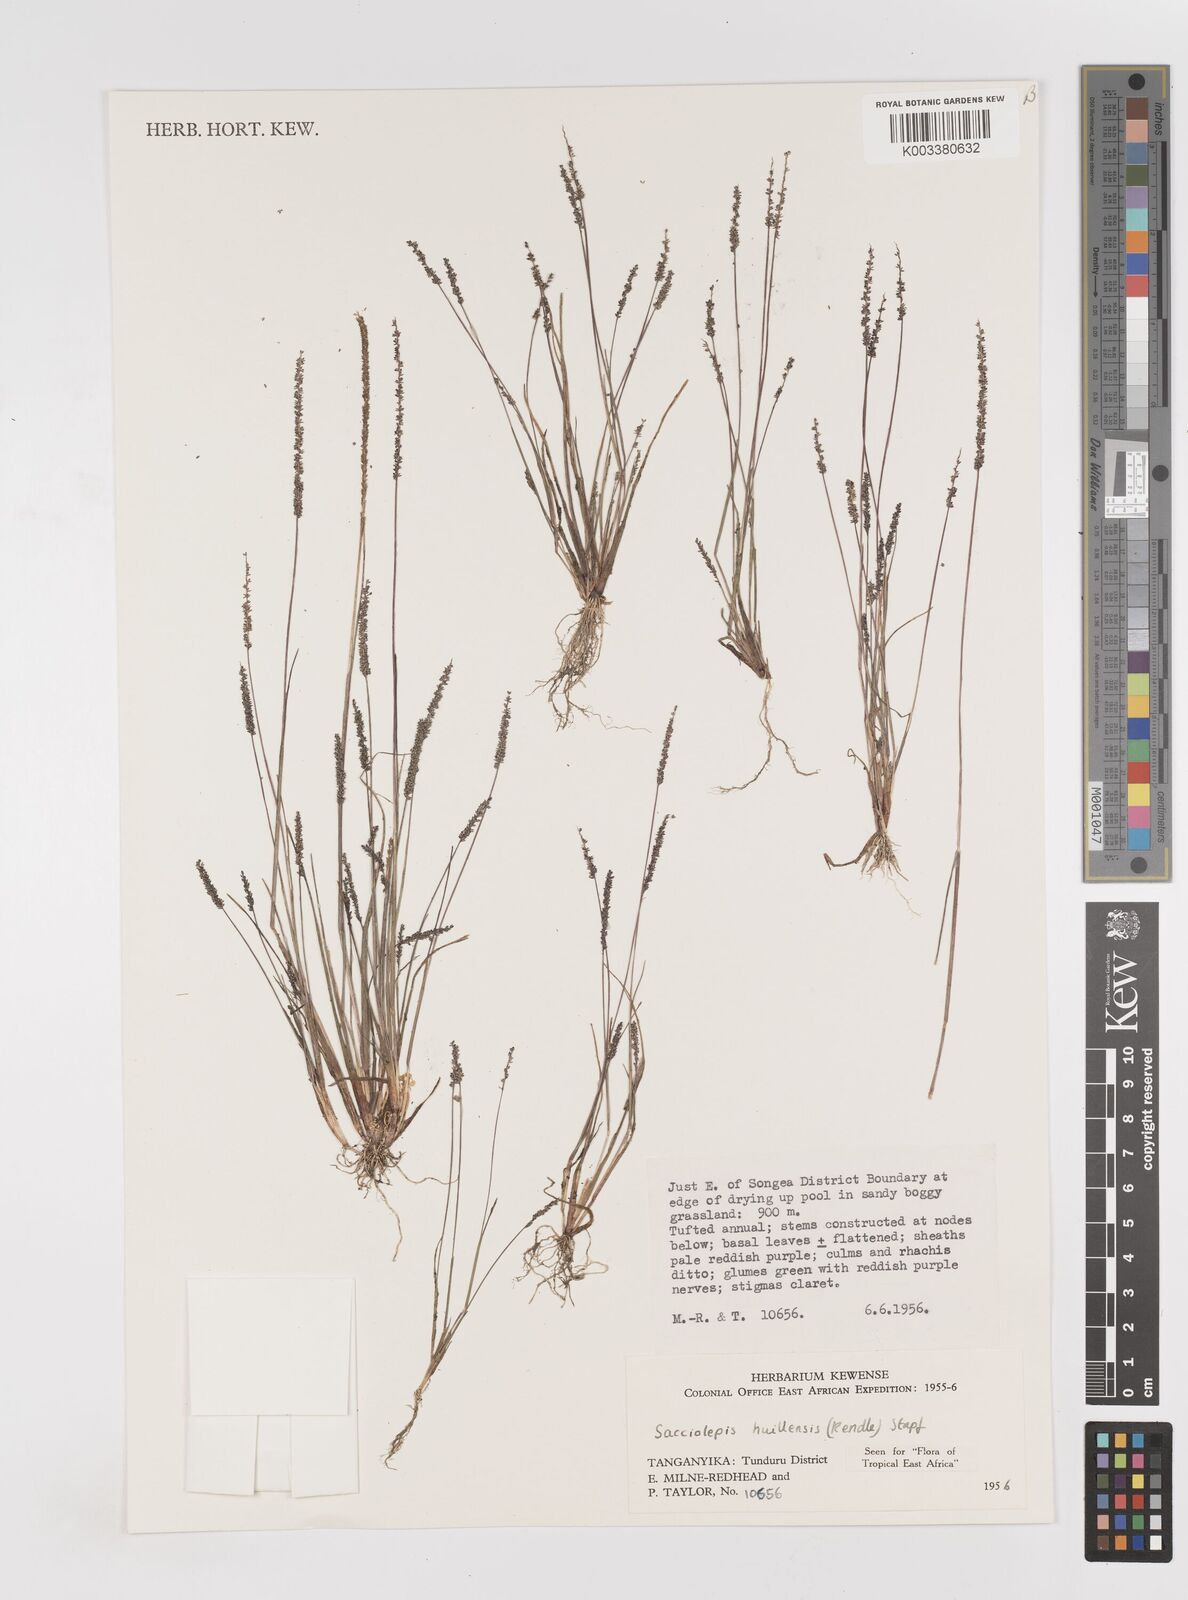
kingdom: Plantae
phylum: Tracheophyta
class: Liliopsida
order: Poales
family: Poaceae
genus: Sacciolepis
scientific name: Sacciolepis myosuroides
